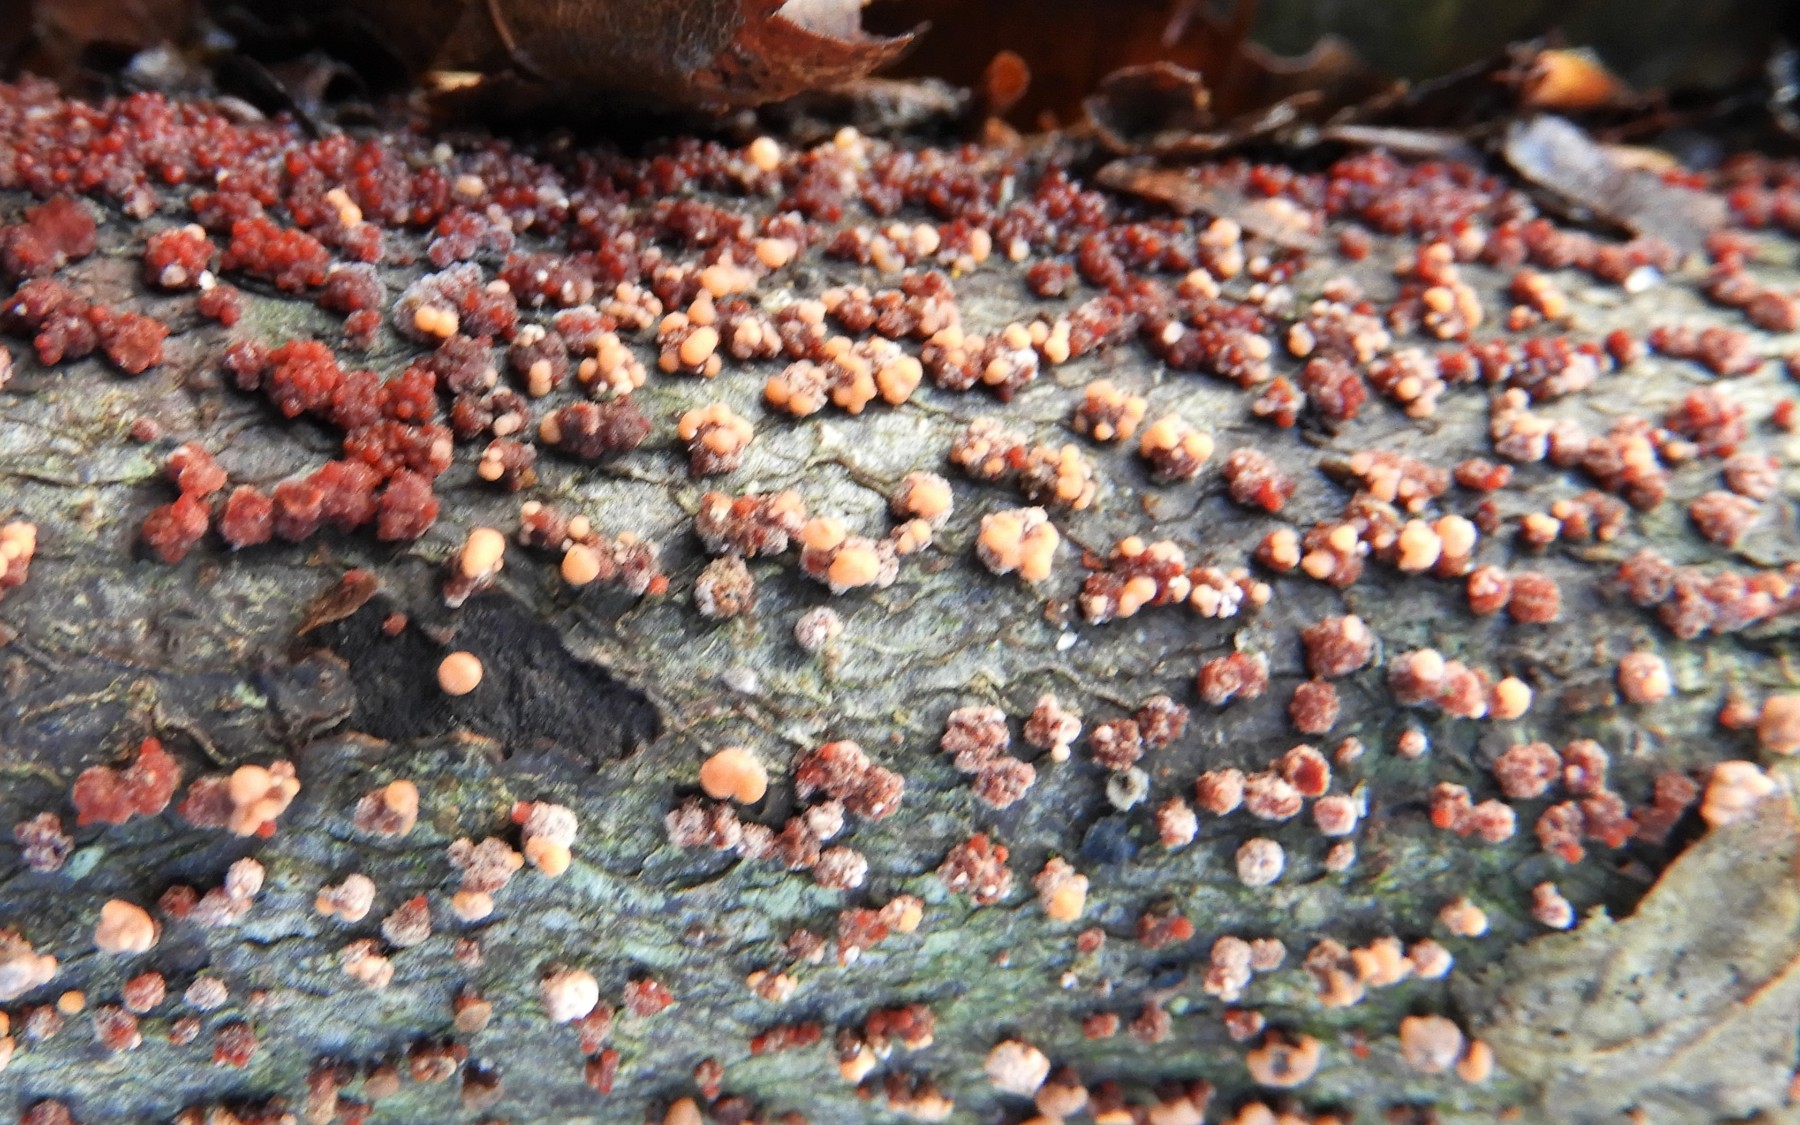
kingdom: Fungi
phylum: Ascomycota
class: Sordariomycetes
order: Hypocreales
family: Nectriaceae
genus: Nectria
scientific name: Nectria cinnabarina
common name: almindelig cinnobersvamp
